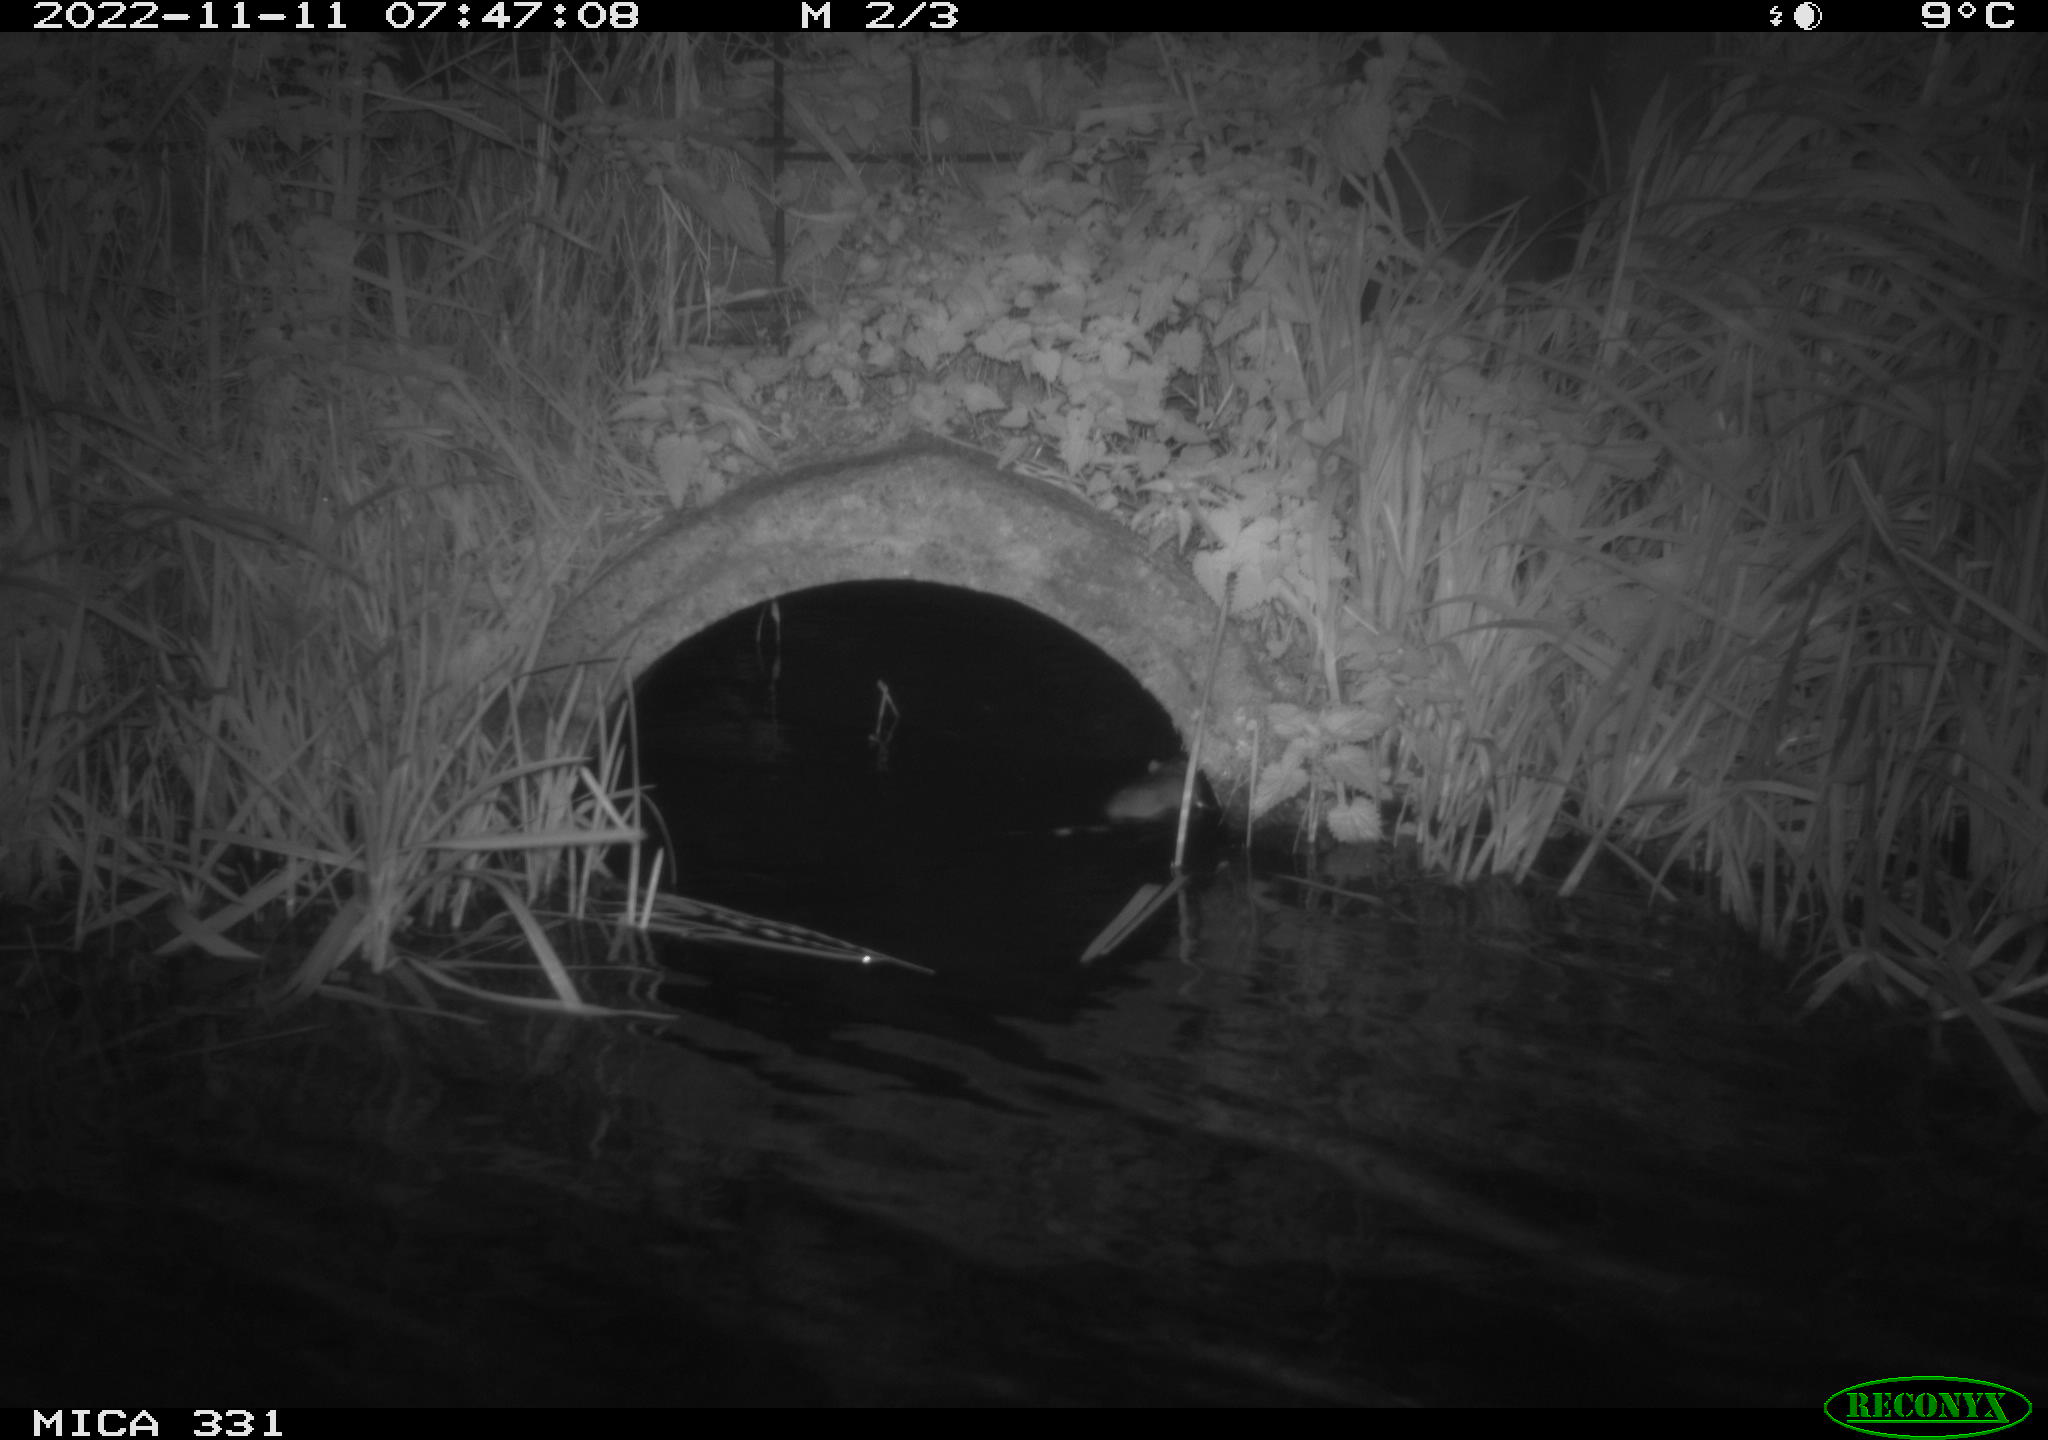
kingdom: Animalia
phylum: Chordata
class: Mammalia
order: Rodentia
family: Muridae
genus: Rattus
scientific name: Rattus norvegicus
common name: Brown rat
